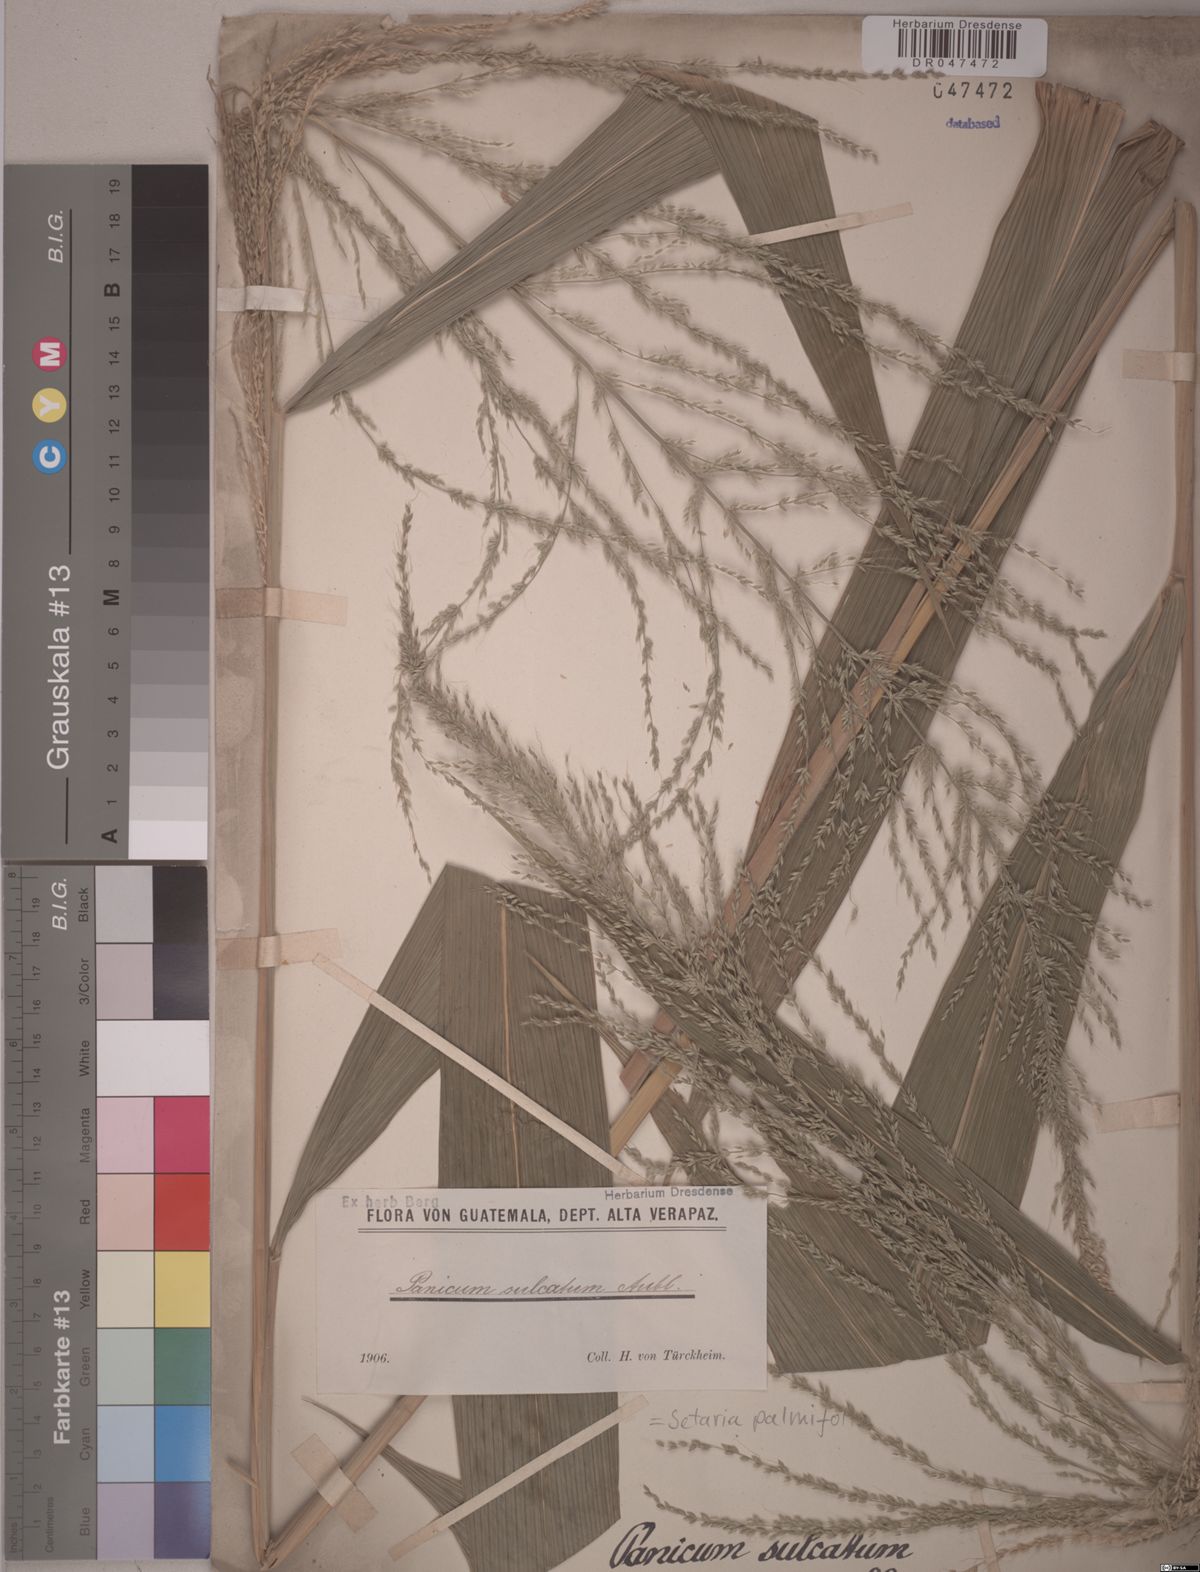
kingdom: Plantae
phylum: Tracheophyta
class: Liliopsida
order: Poales
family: Poaceae
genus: Setaria
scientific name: Setaria palmifolia
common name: Broadleaved bristlegrass
